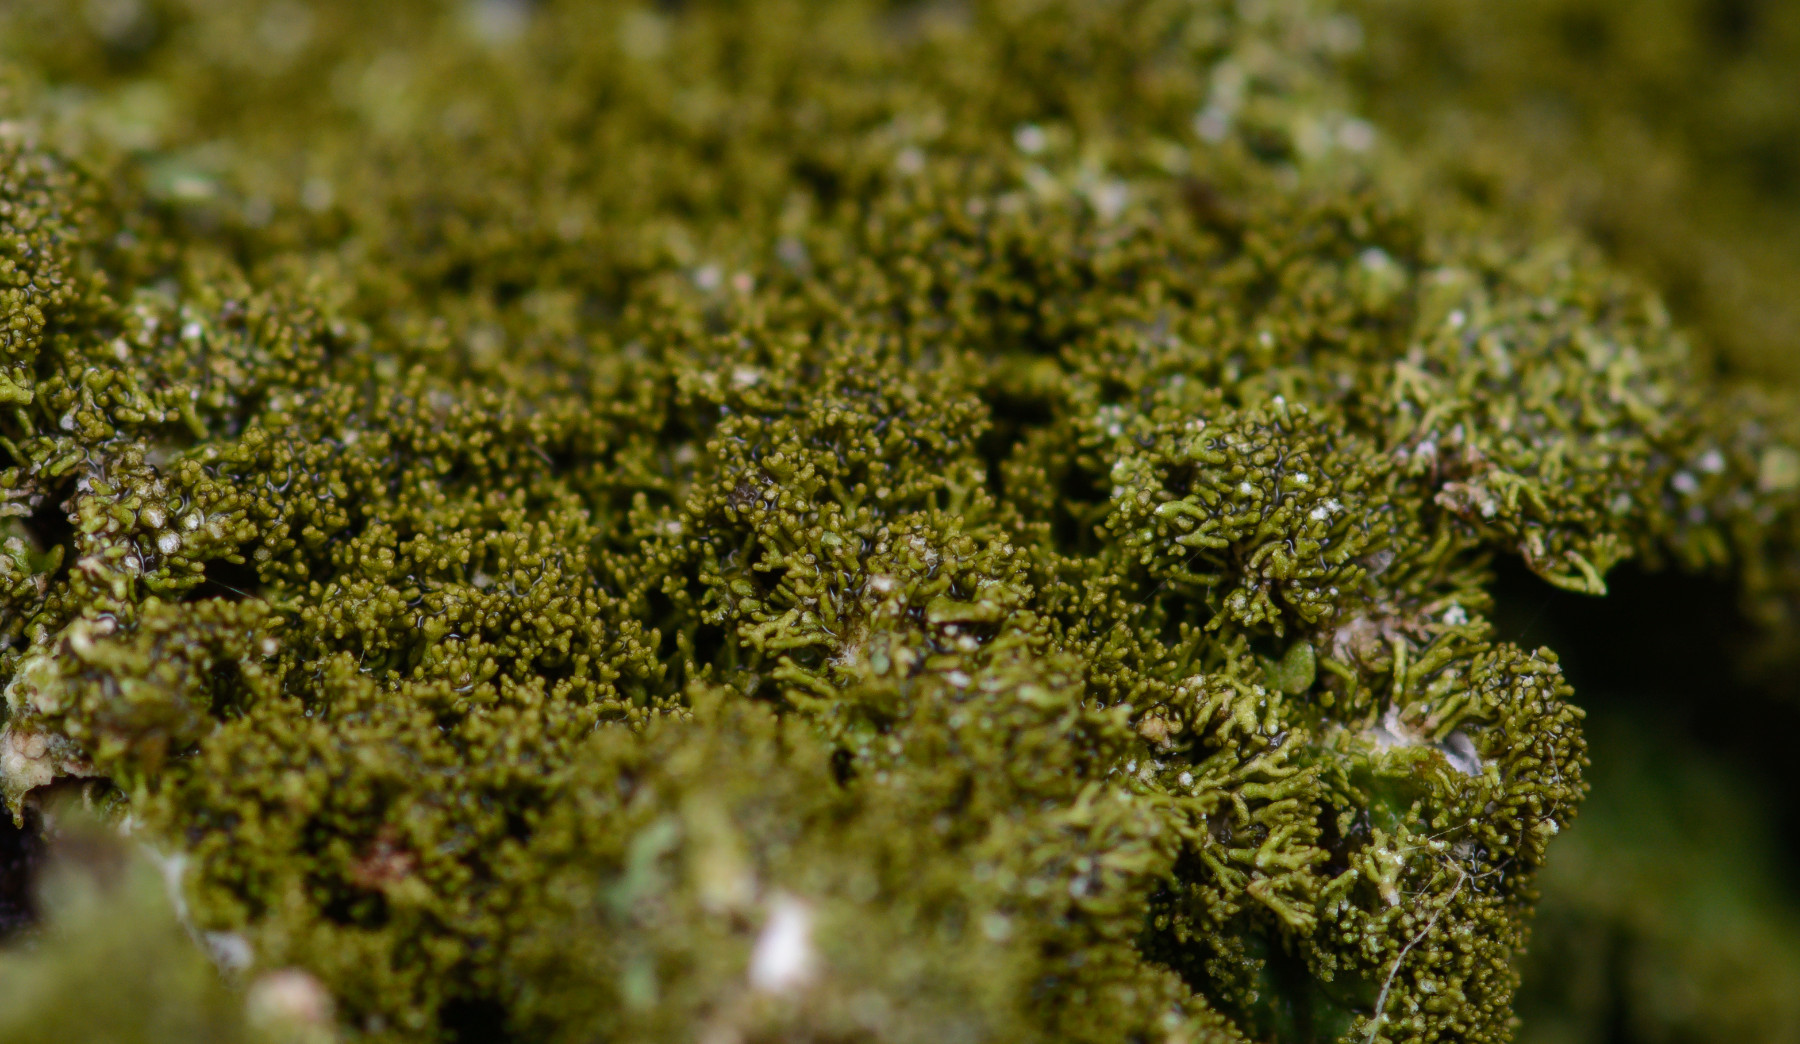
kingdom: Fungi
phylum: Ascomycota
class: Lecanoromycetes
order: Lecanorales
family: Parmeliaceae
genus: Melanelixia
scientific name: Melanelixia glabratula
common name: glinsende skållav
